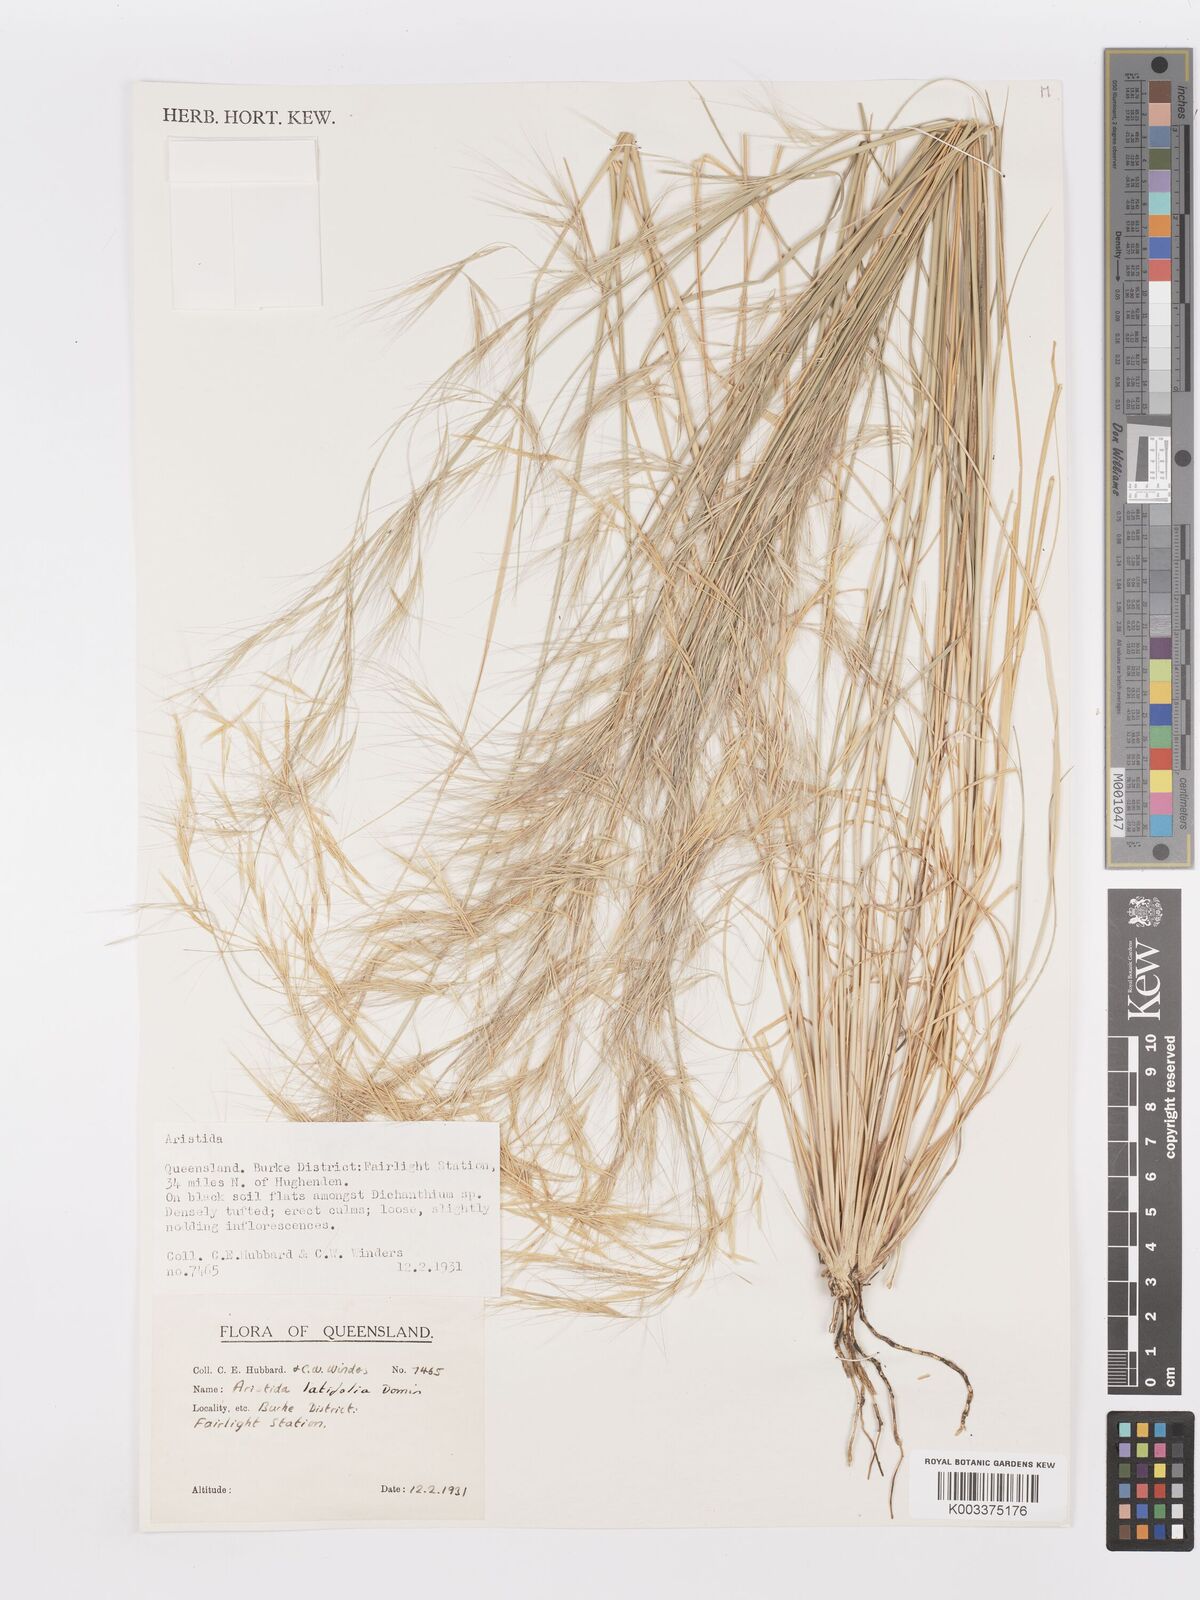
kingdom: Plantae
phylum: Tracheophyta
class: Liliopsida
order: Poales
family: Poaceae
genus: Aristida
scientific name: Aristida latifolia
